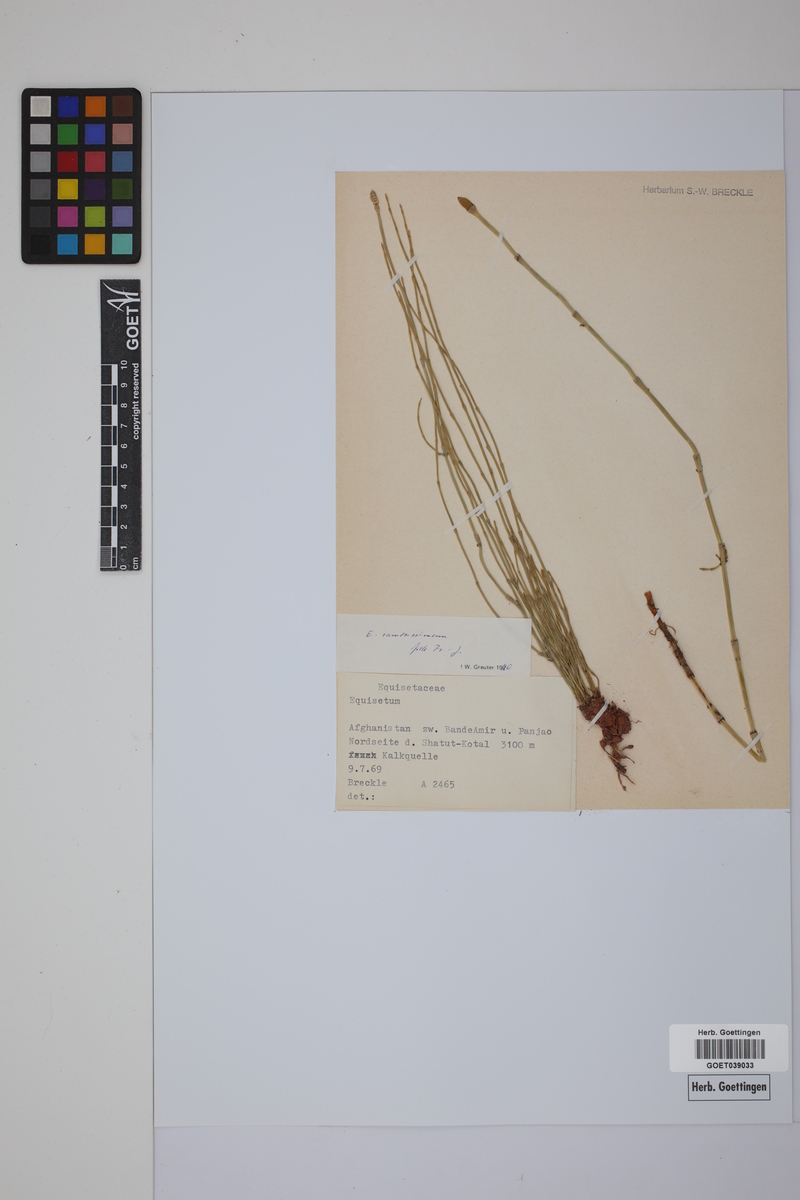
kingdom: Plantae
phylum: Tracheophyta
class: Polypodiopsida
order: Equisetales
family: Equisetaceae
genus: Equisetum
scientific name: Equisetum giganteum
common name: Giant horsetail
